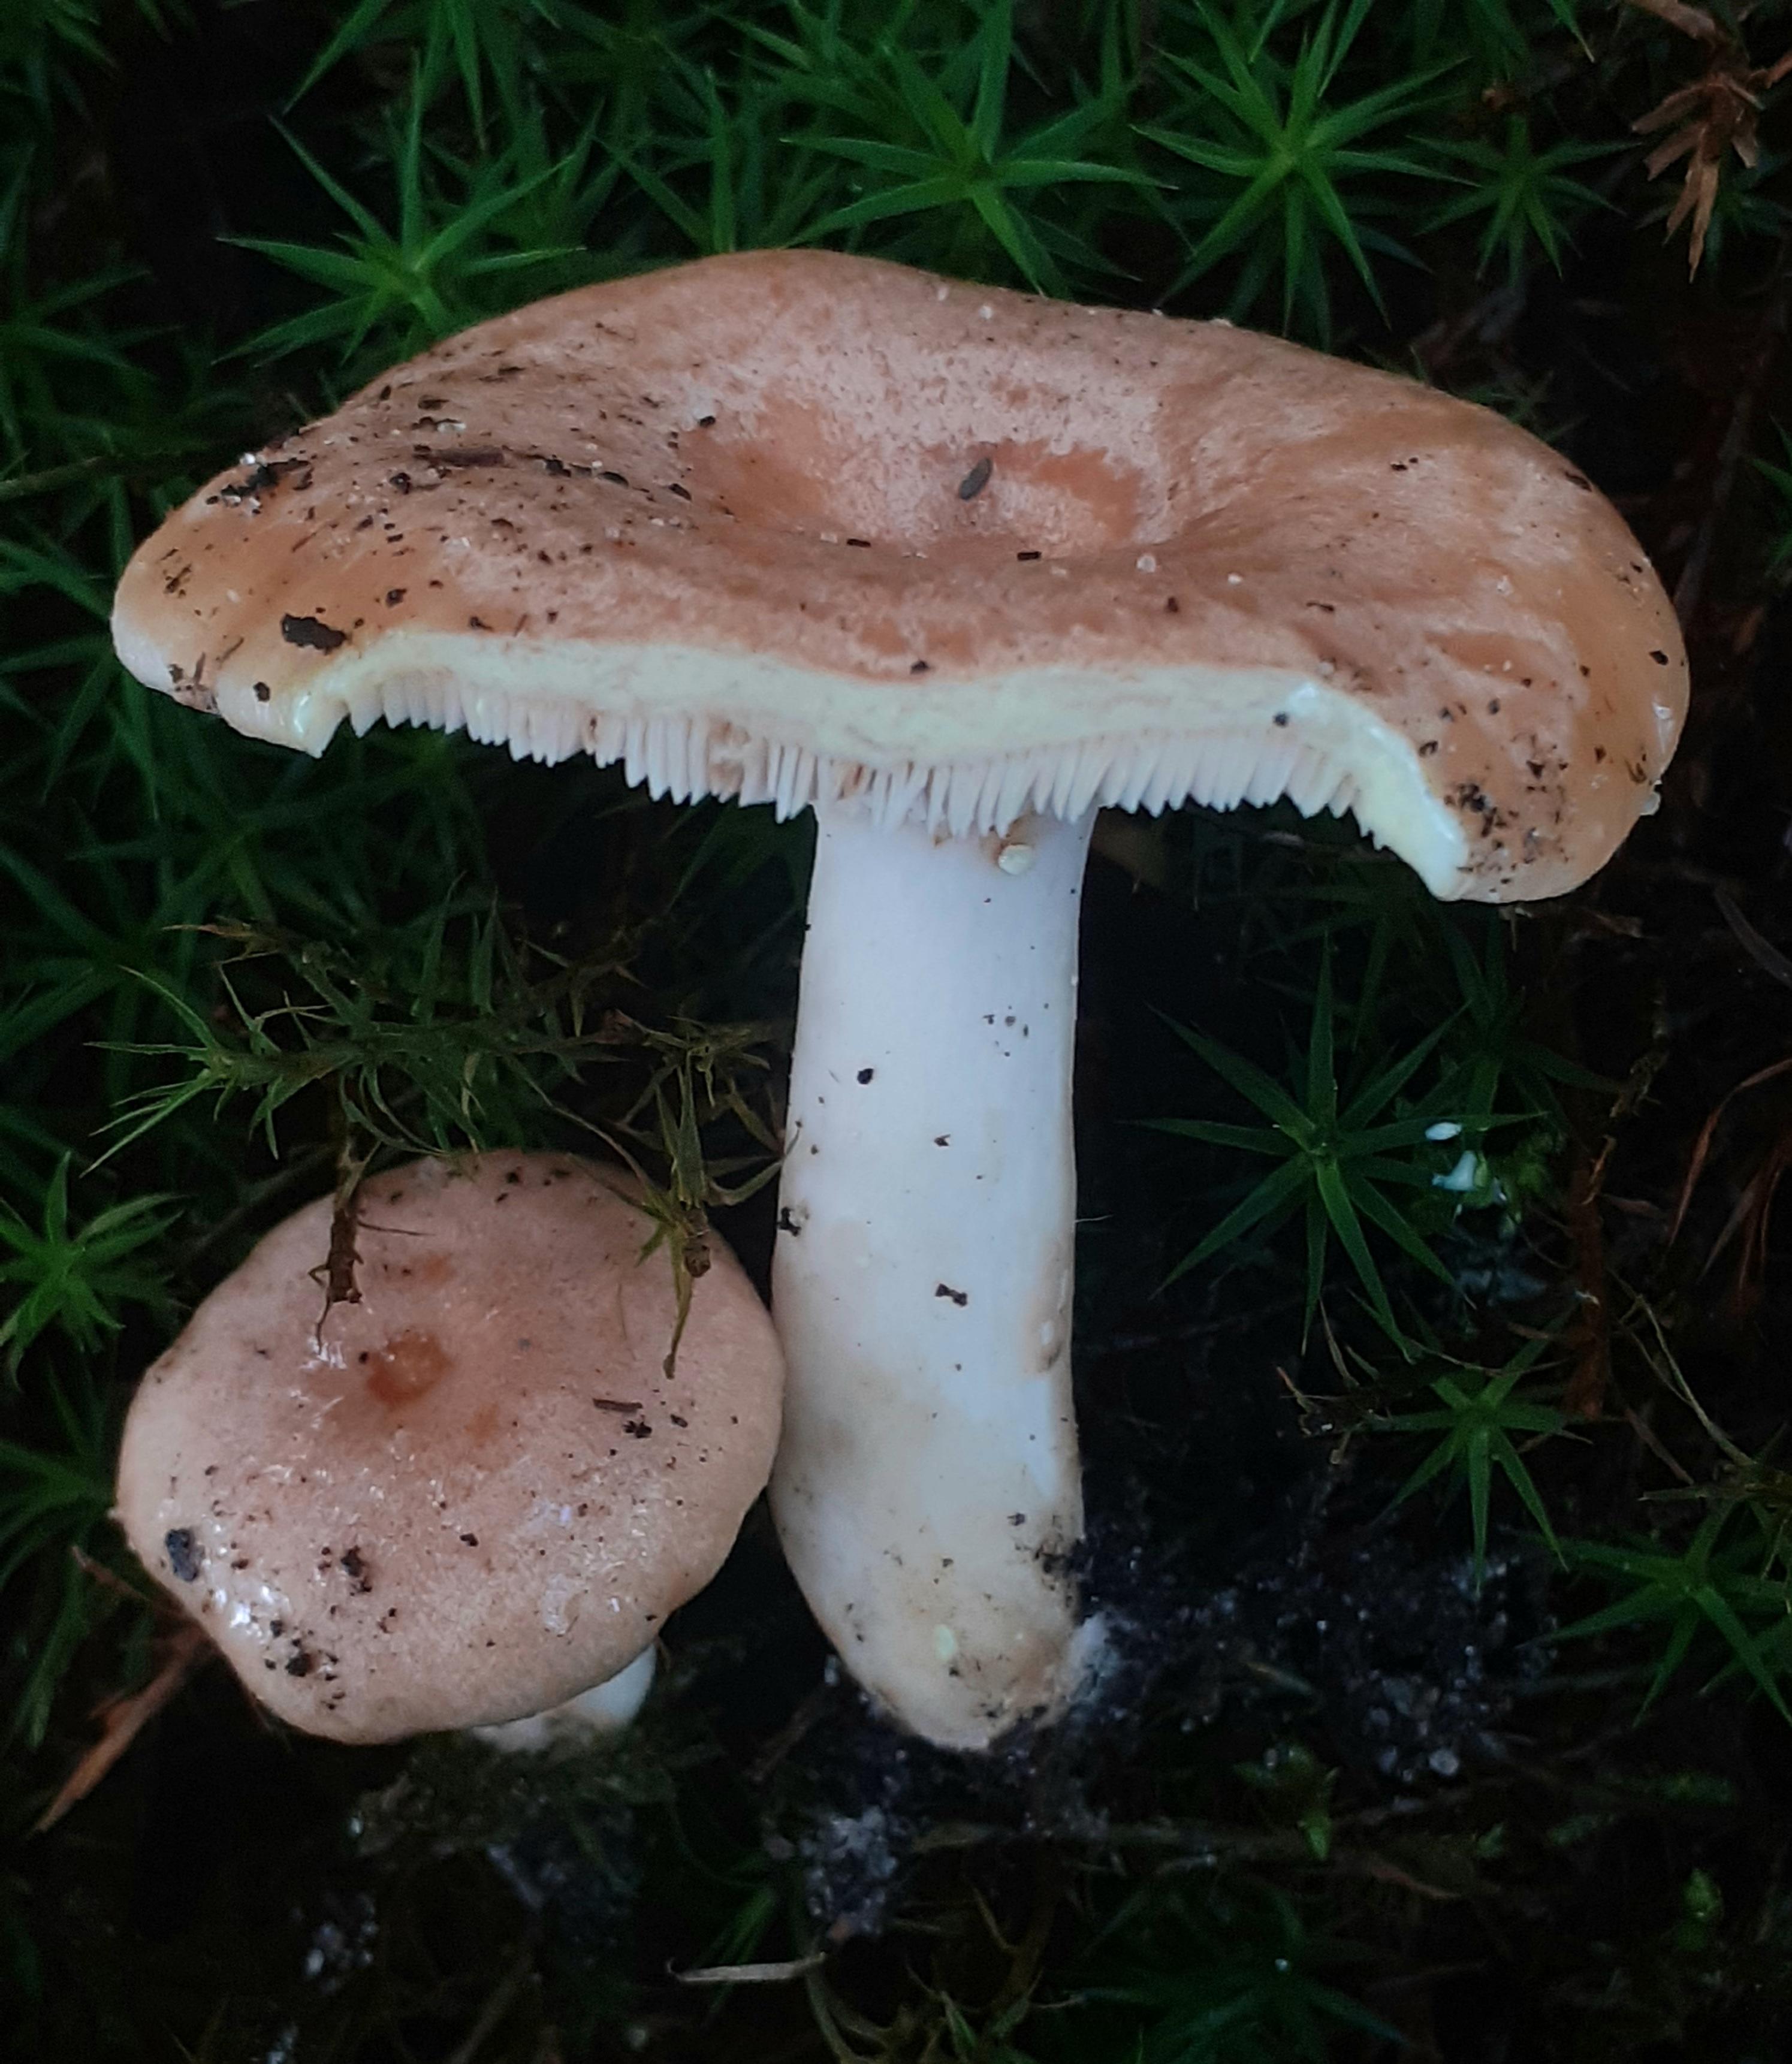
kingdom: Fungi
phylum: Basidiomycota
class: Agaricomycetes
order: Russulales
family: Russulaceae
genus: Lactarius
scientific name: Lactarius chrysorrheus
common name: svovlmælket mælkehat
